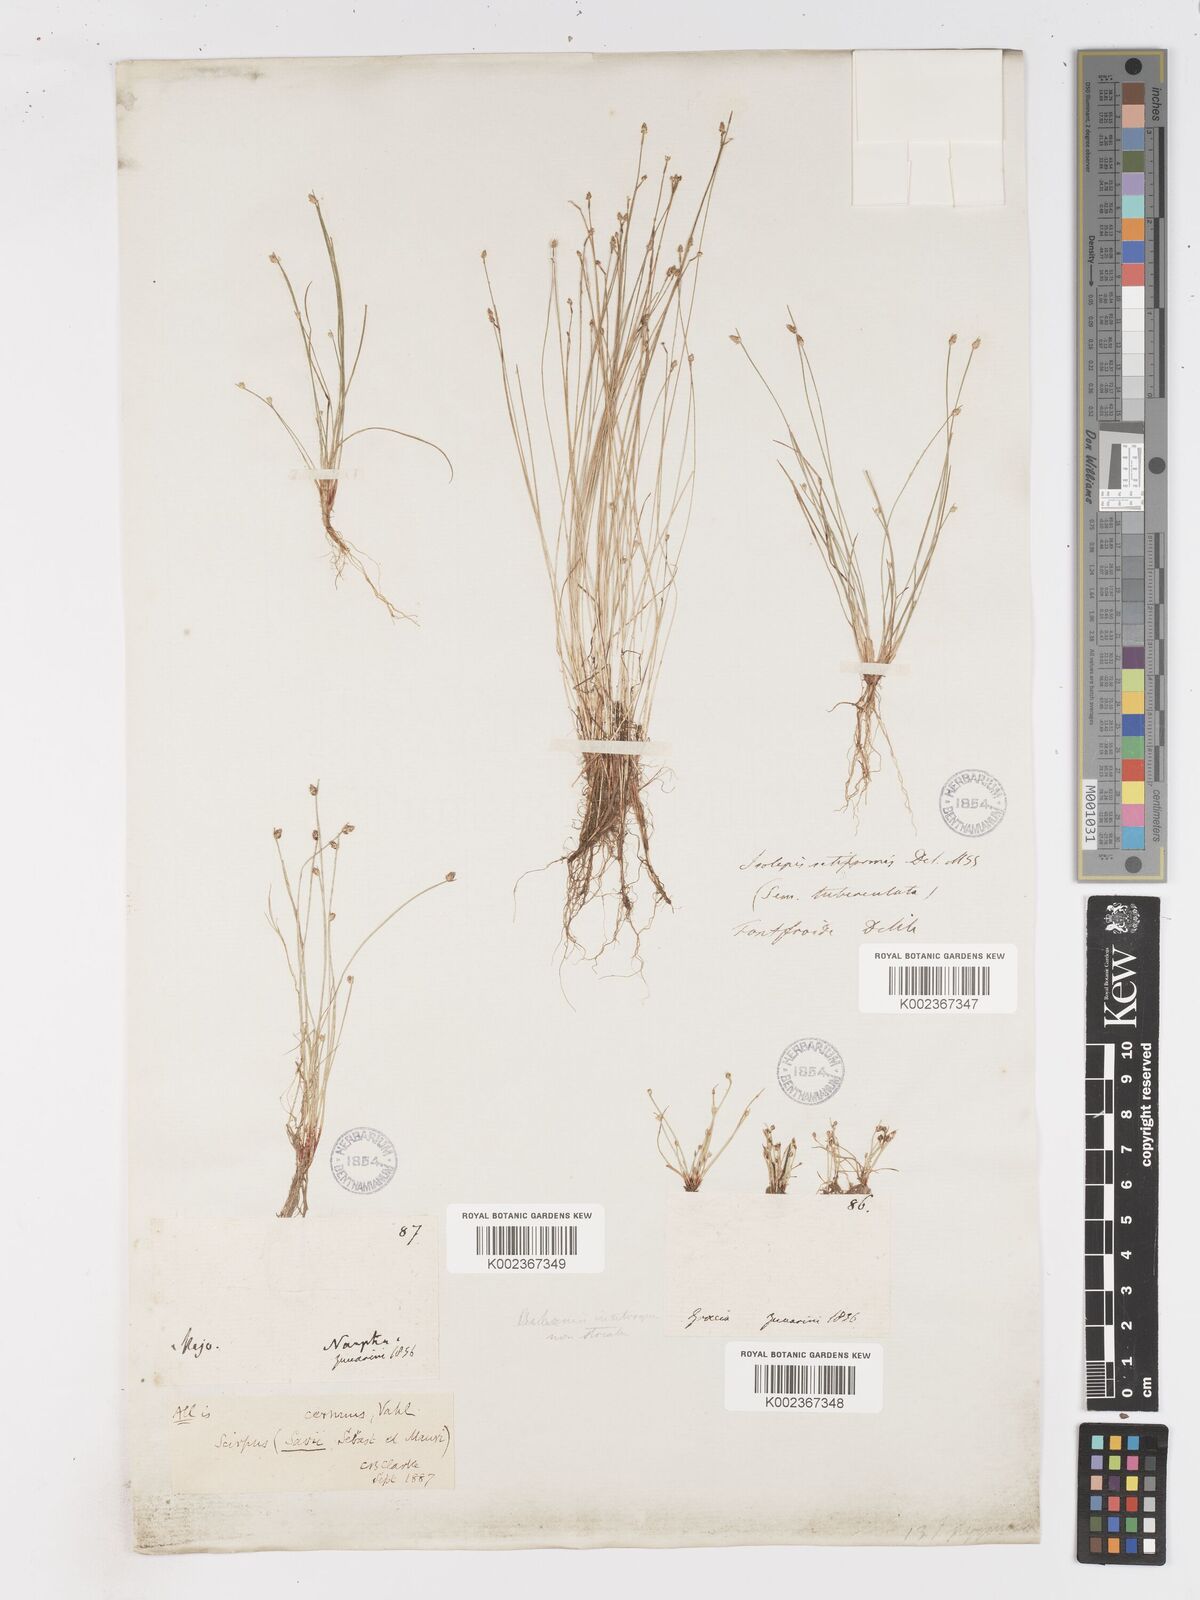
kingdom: Plantae
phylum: Tracheophyta
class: Liliopsida
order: Poales
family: Cyperaceae
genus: Isolepis
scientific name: Isolepis cernua
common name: Slender club-rush
